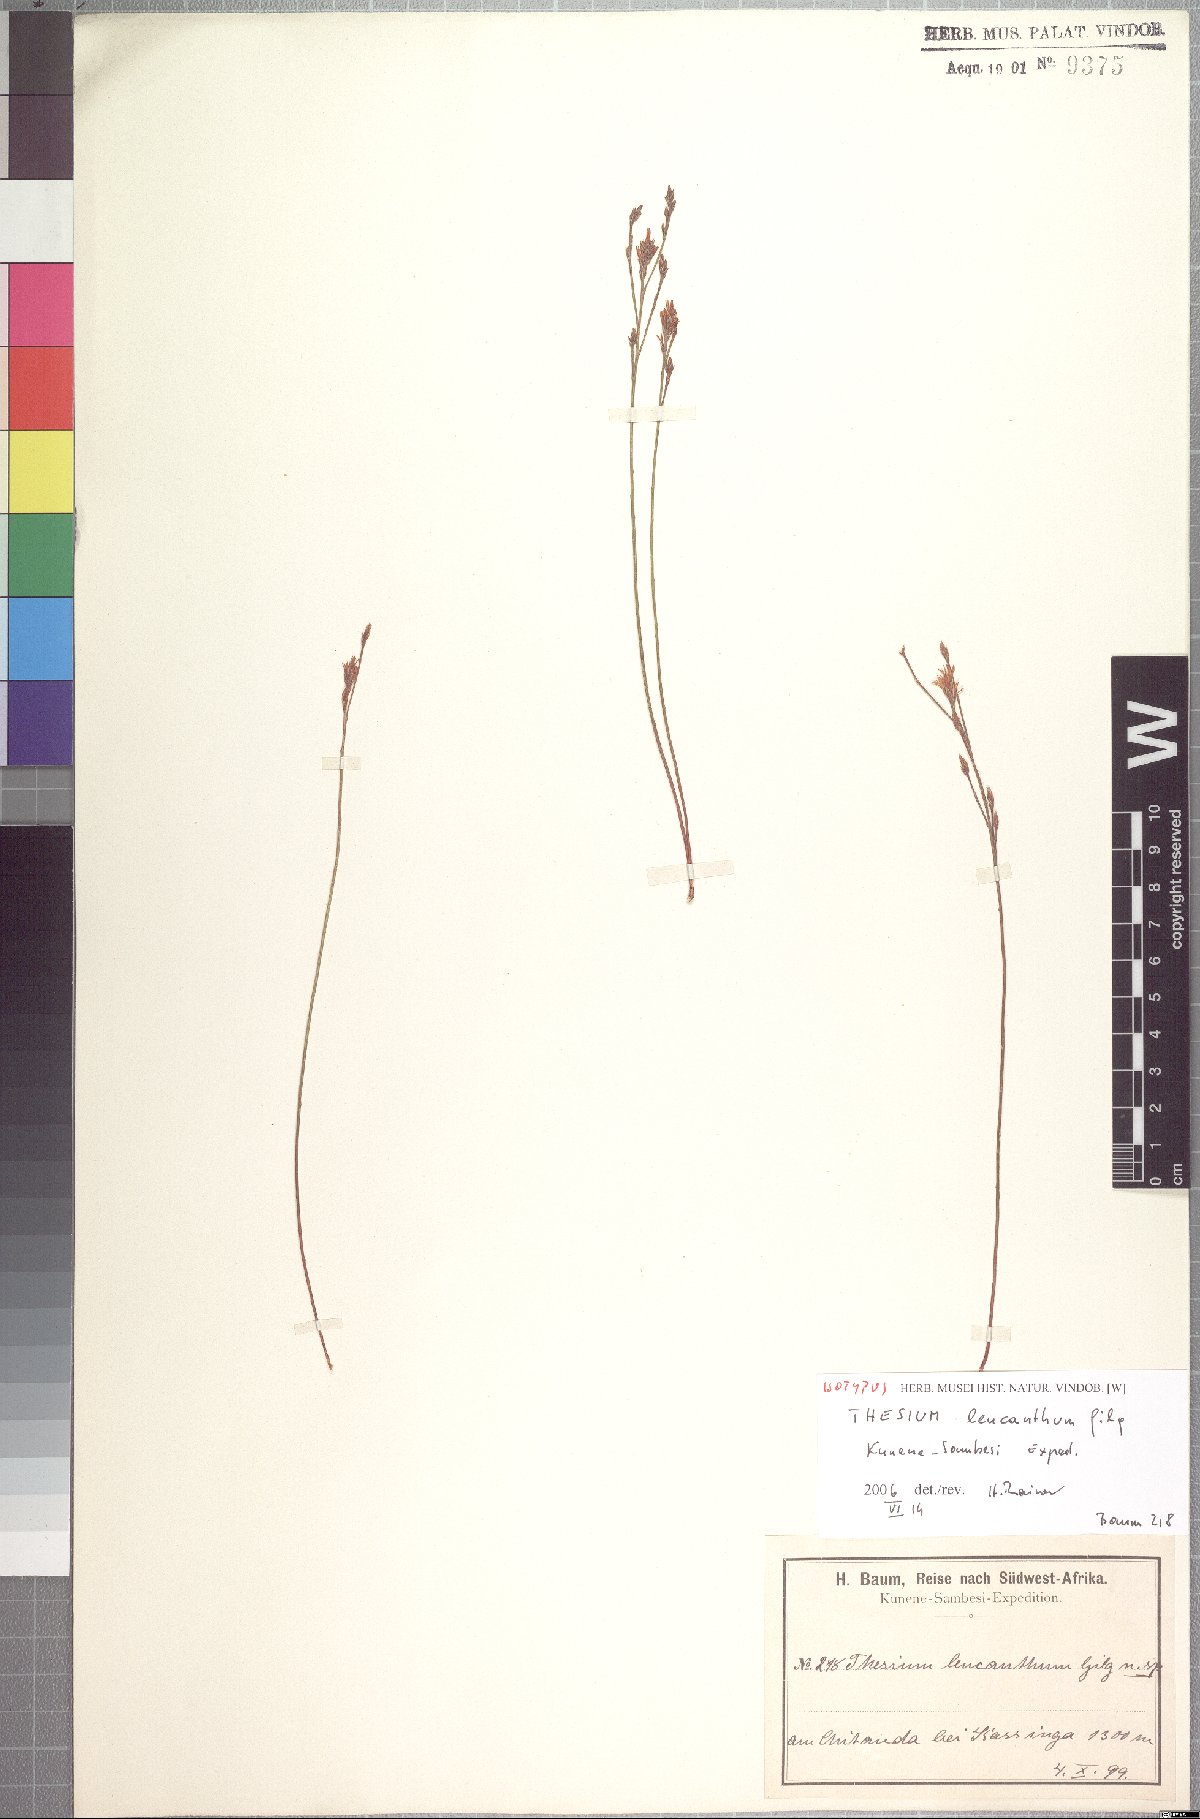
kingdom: Plantae
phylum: Tracheophyta
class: Magnoliopsida
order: Santalales
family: Thesiaceae
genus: Thesium
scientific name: Thesium leucanthum
